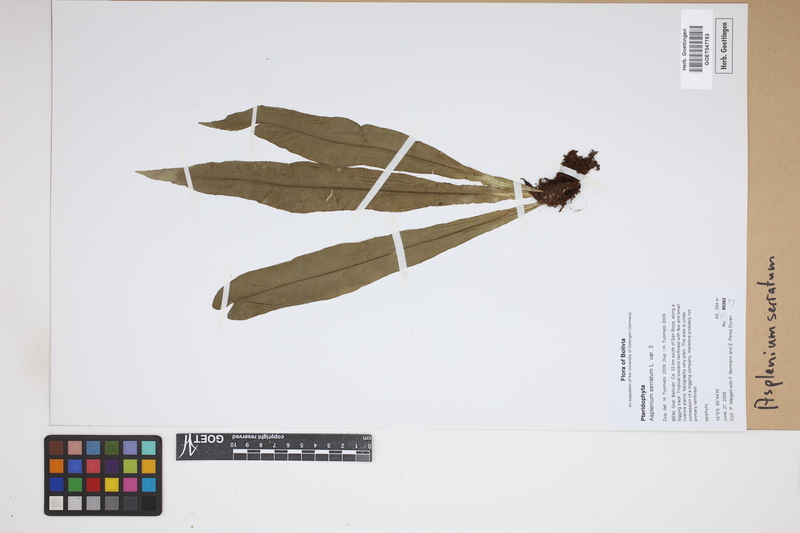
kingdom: Plantae
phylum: Tracheophyta
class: Polypodiopsida
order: Polypodiales
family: Aspleniaceae
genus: Asplenium
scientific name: Asplenium serratum
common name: Wild birdnest fern
